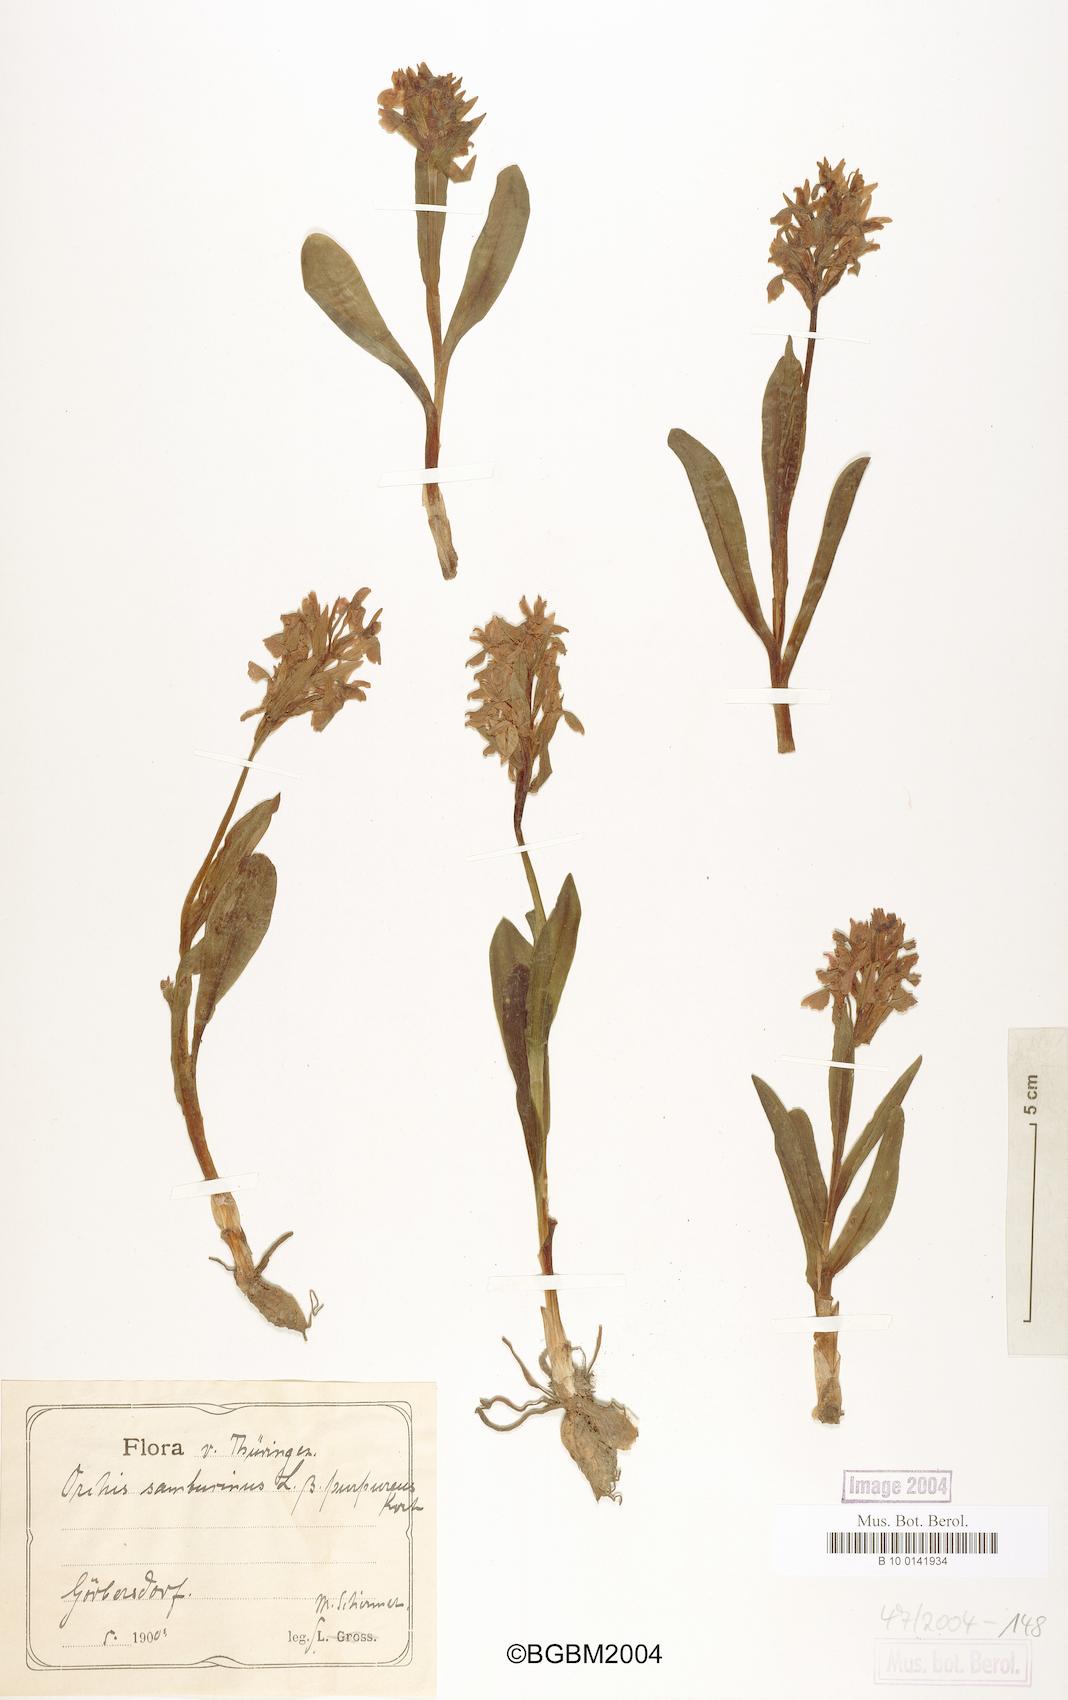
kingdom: Plantae
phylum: Tracheophyta
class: Liliopsida
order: Asparagales
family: Orchidaceae
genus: Dactylorhiza
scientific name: Dactylorhiza sambucina
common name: Elder-flowered orchid
